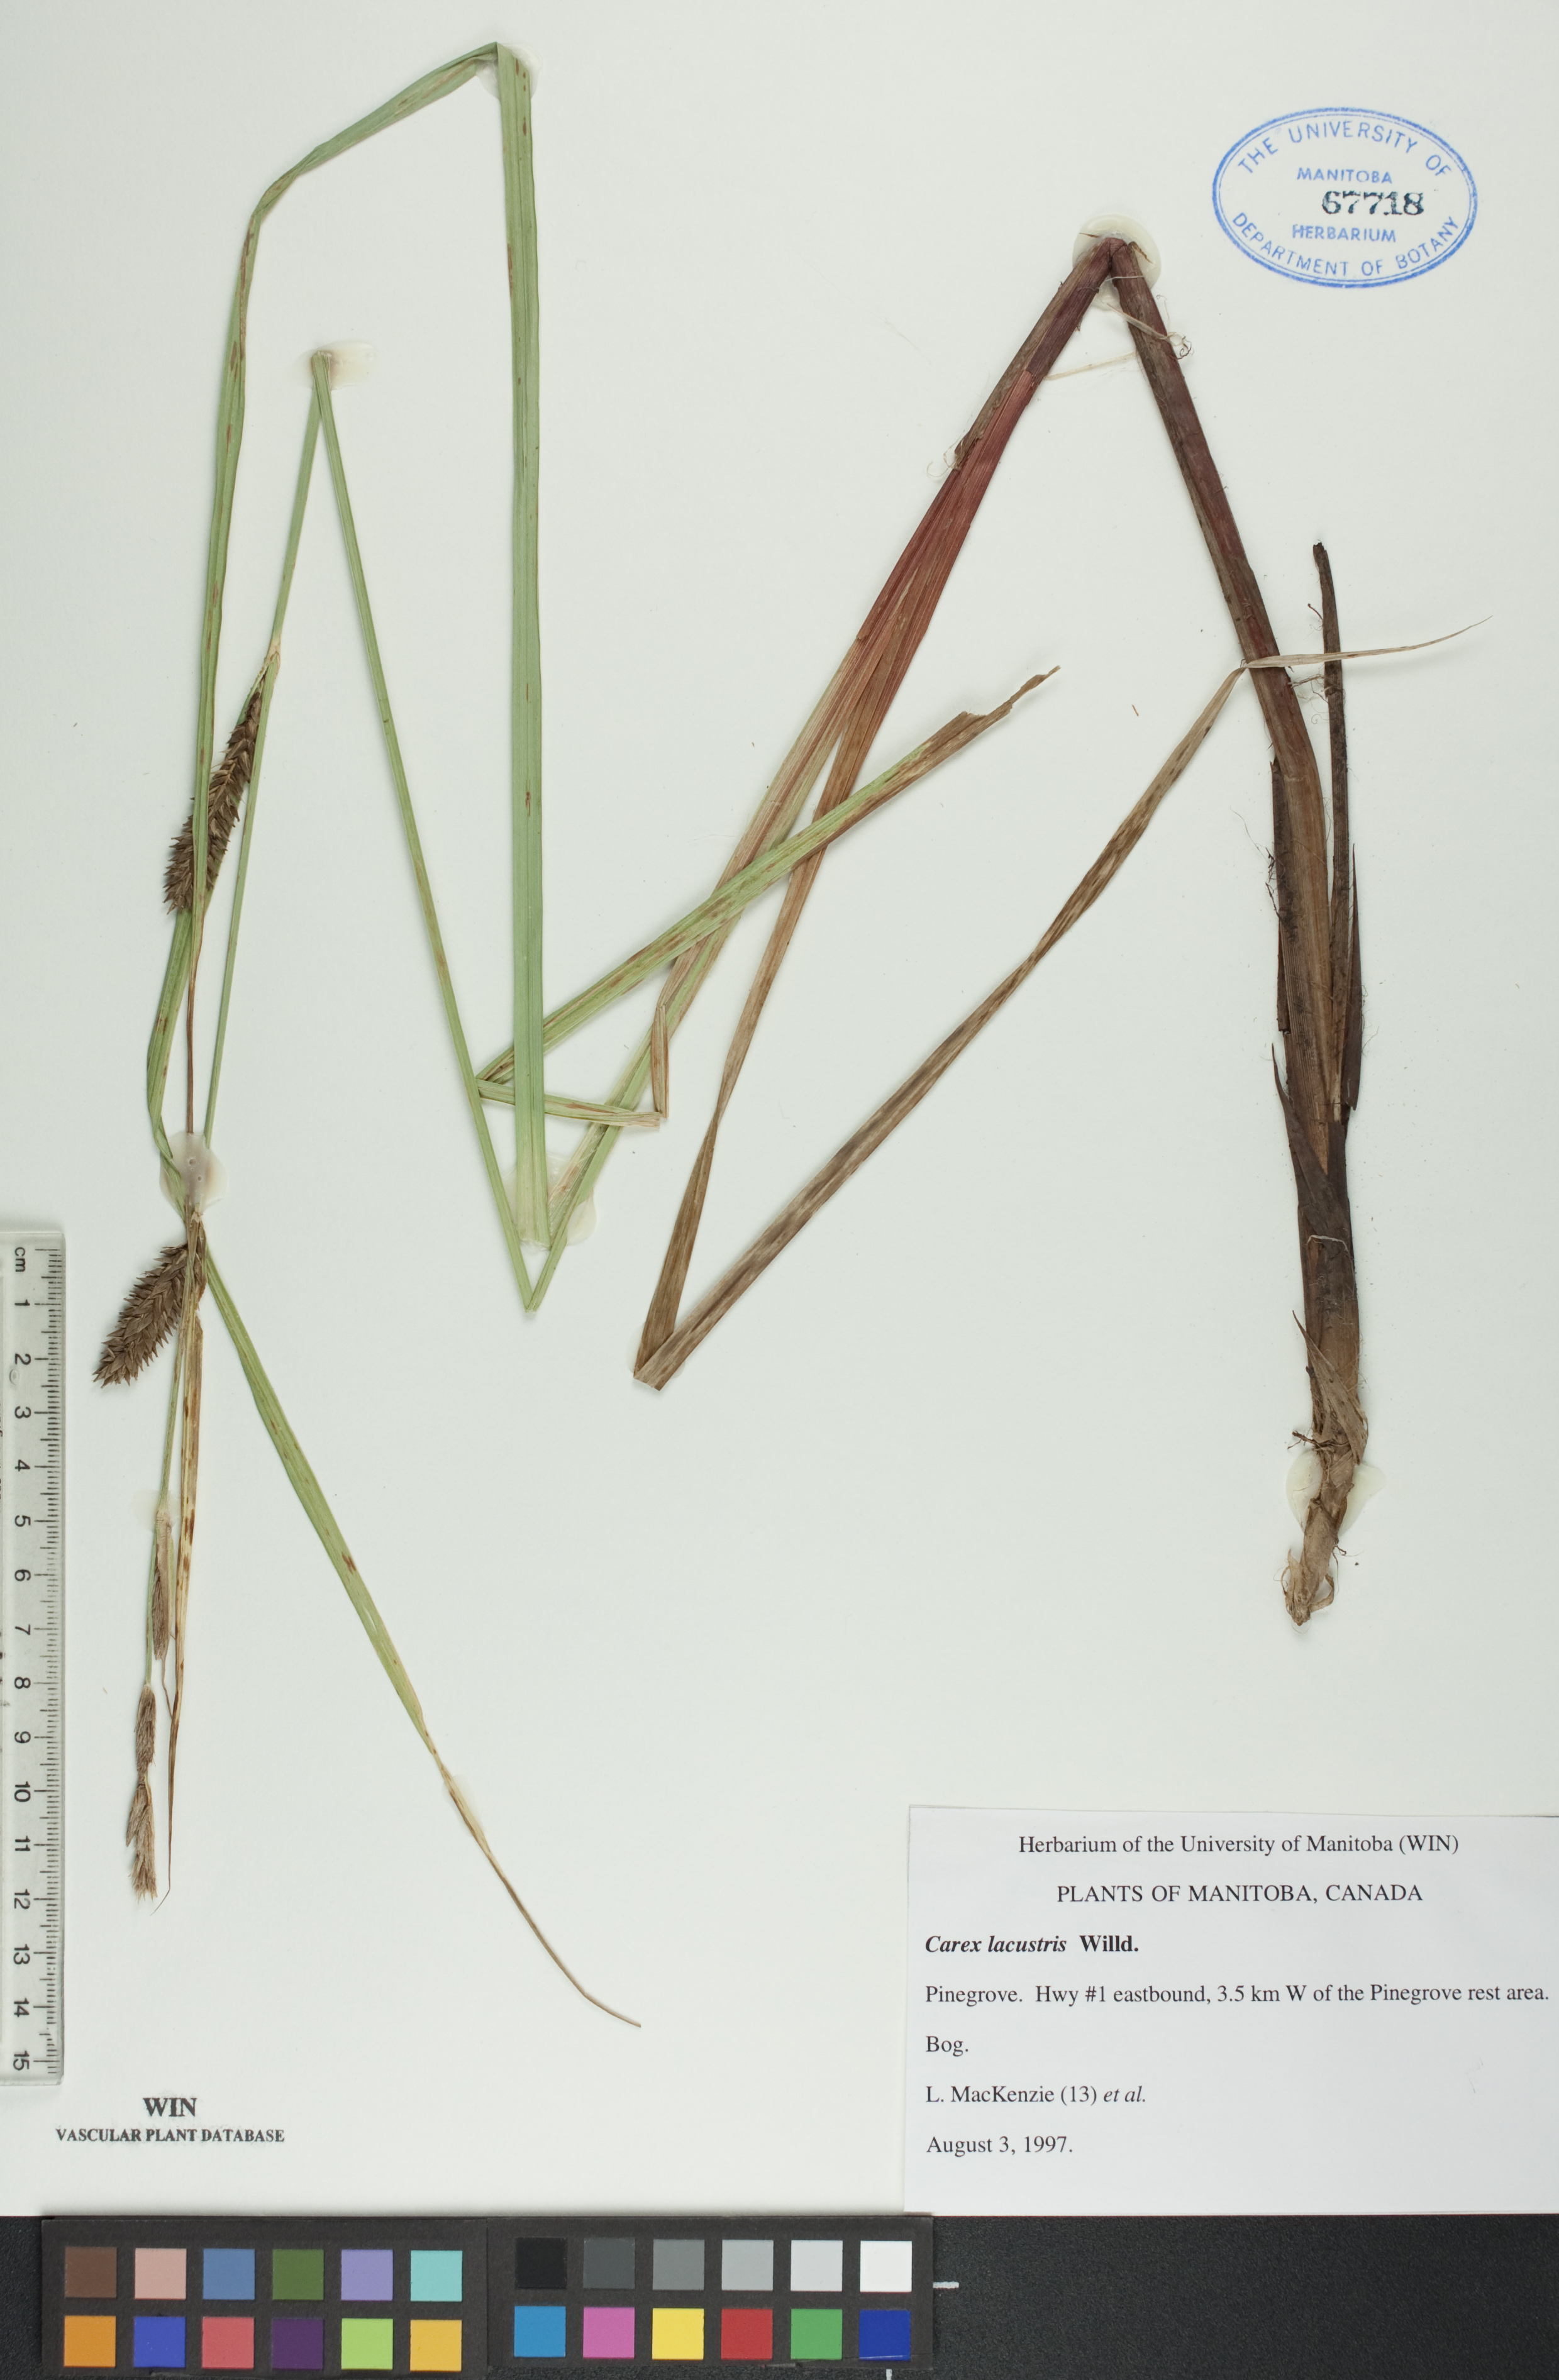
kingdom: Plantae
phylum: Tracheophyta
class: Liliopsida
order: Poales
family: Cyperaceae
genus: Carex
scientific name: Carex lacustris
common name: Common lake sedge
